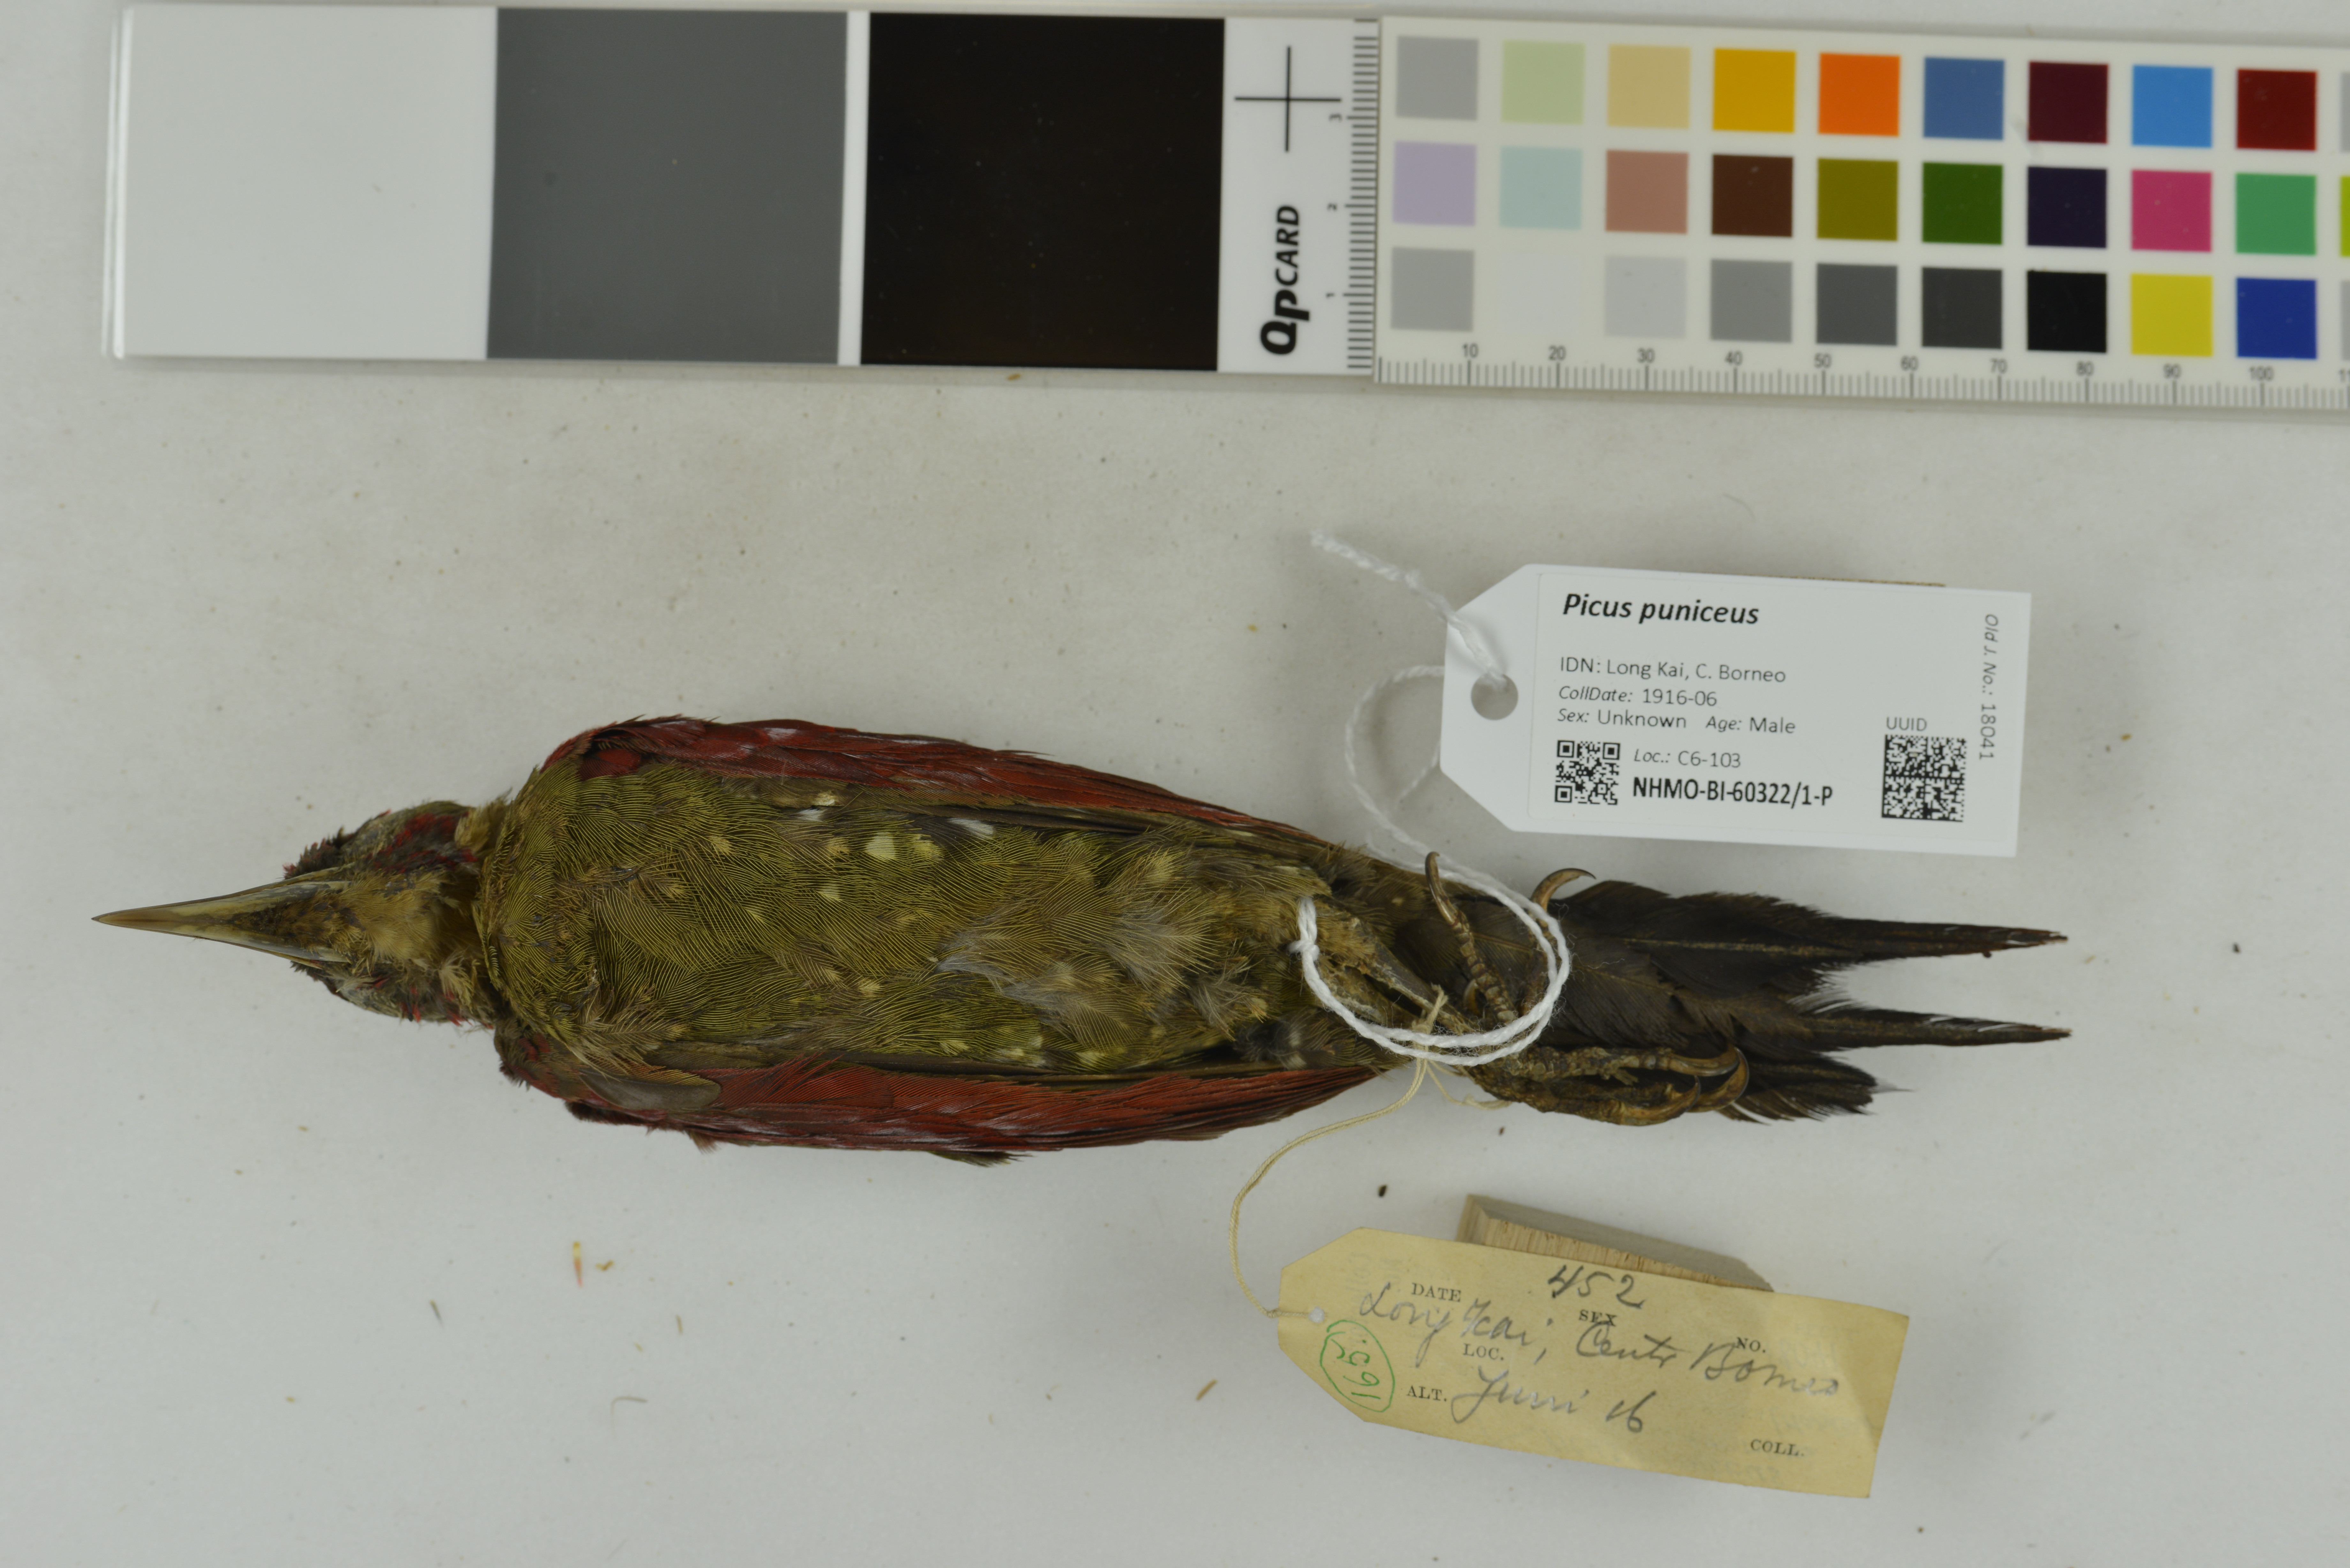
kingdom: Animalia
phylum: Chordata
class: Aves
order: Piciformes
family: Picidae
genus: Picus
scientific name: Picus puniceus
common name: Crimson-winged woodpecker
